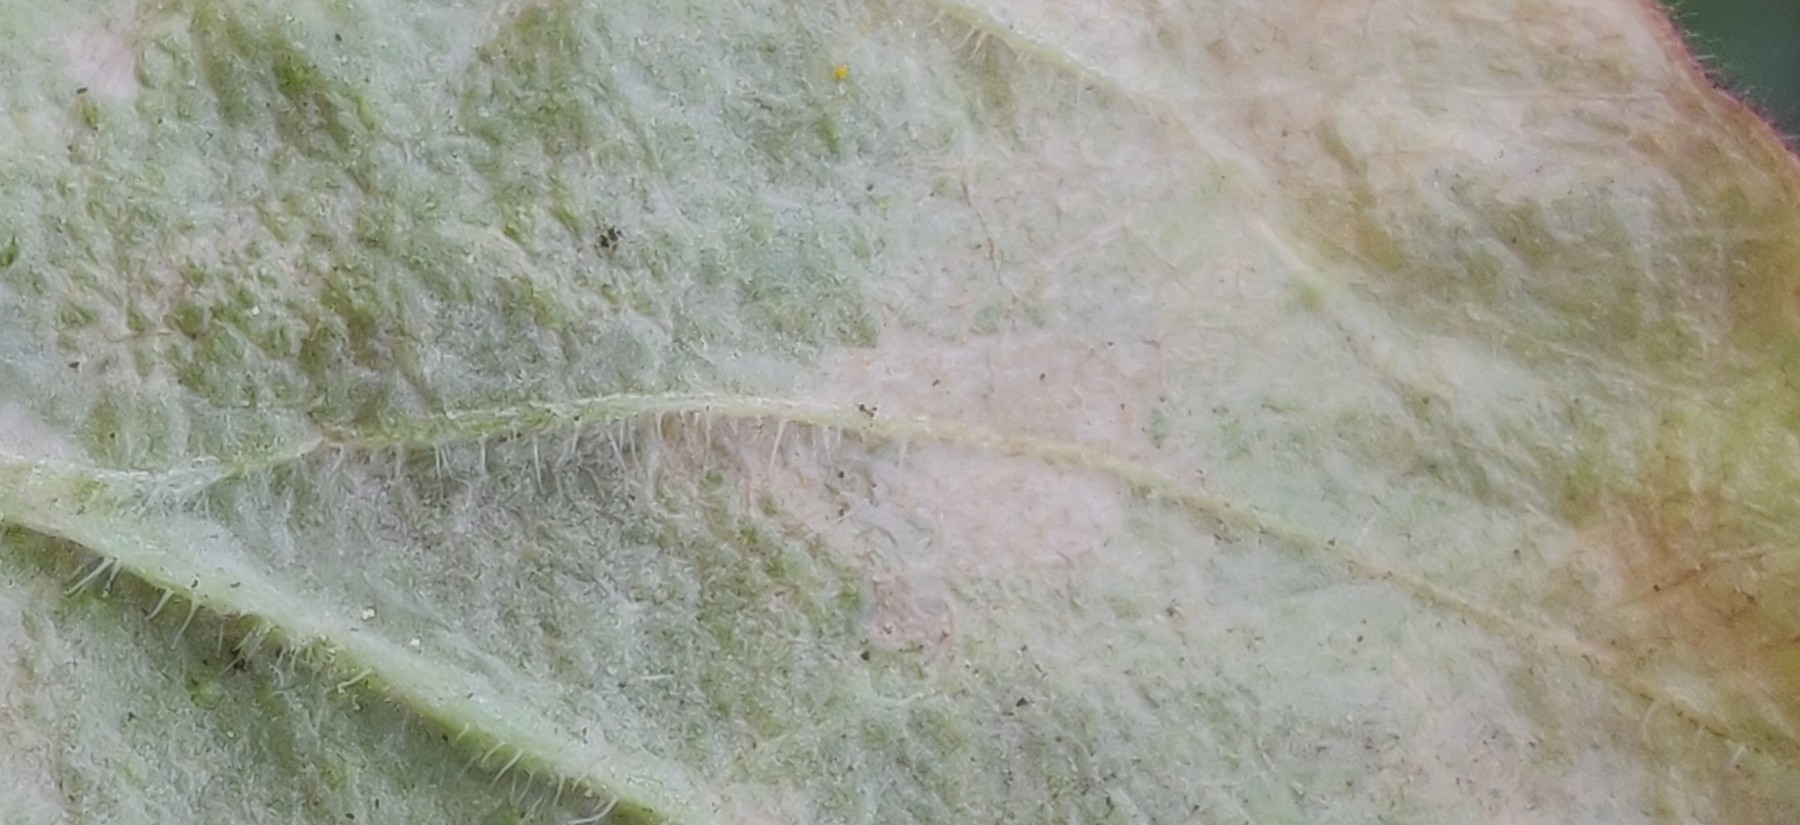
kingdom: Fungi
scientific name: Fungi
